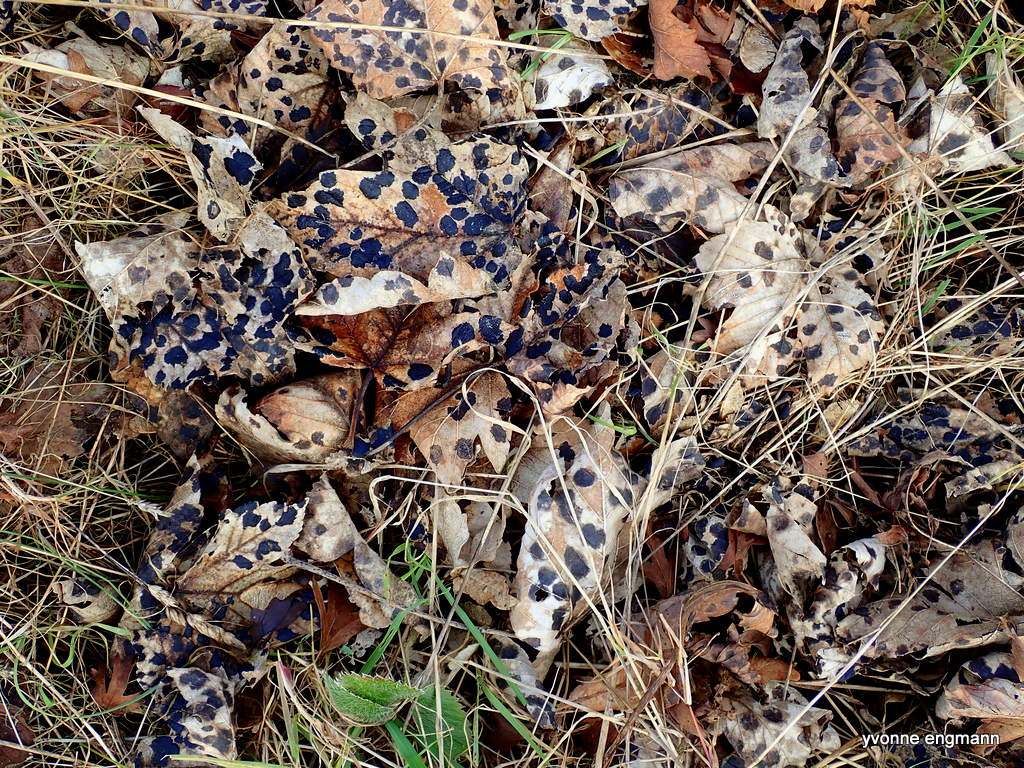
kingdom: Fungi
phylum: Ascomycota
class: Leotiomycetes
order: Rhytismatales
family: Rhytismataceae
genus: Rhytisma
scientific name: Rhytisma acerinum
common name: ahorn-rynkeplet
